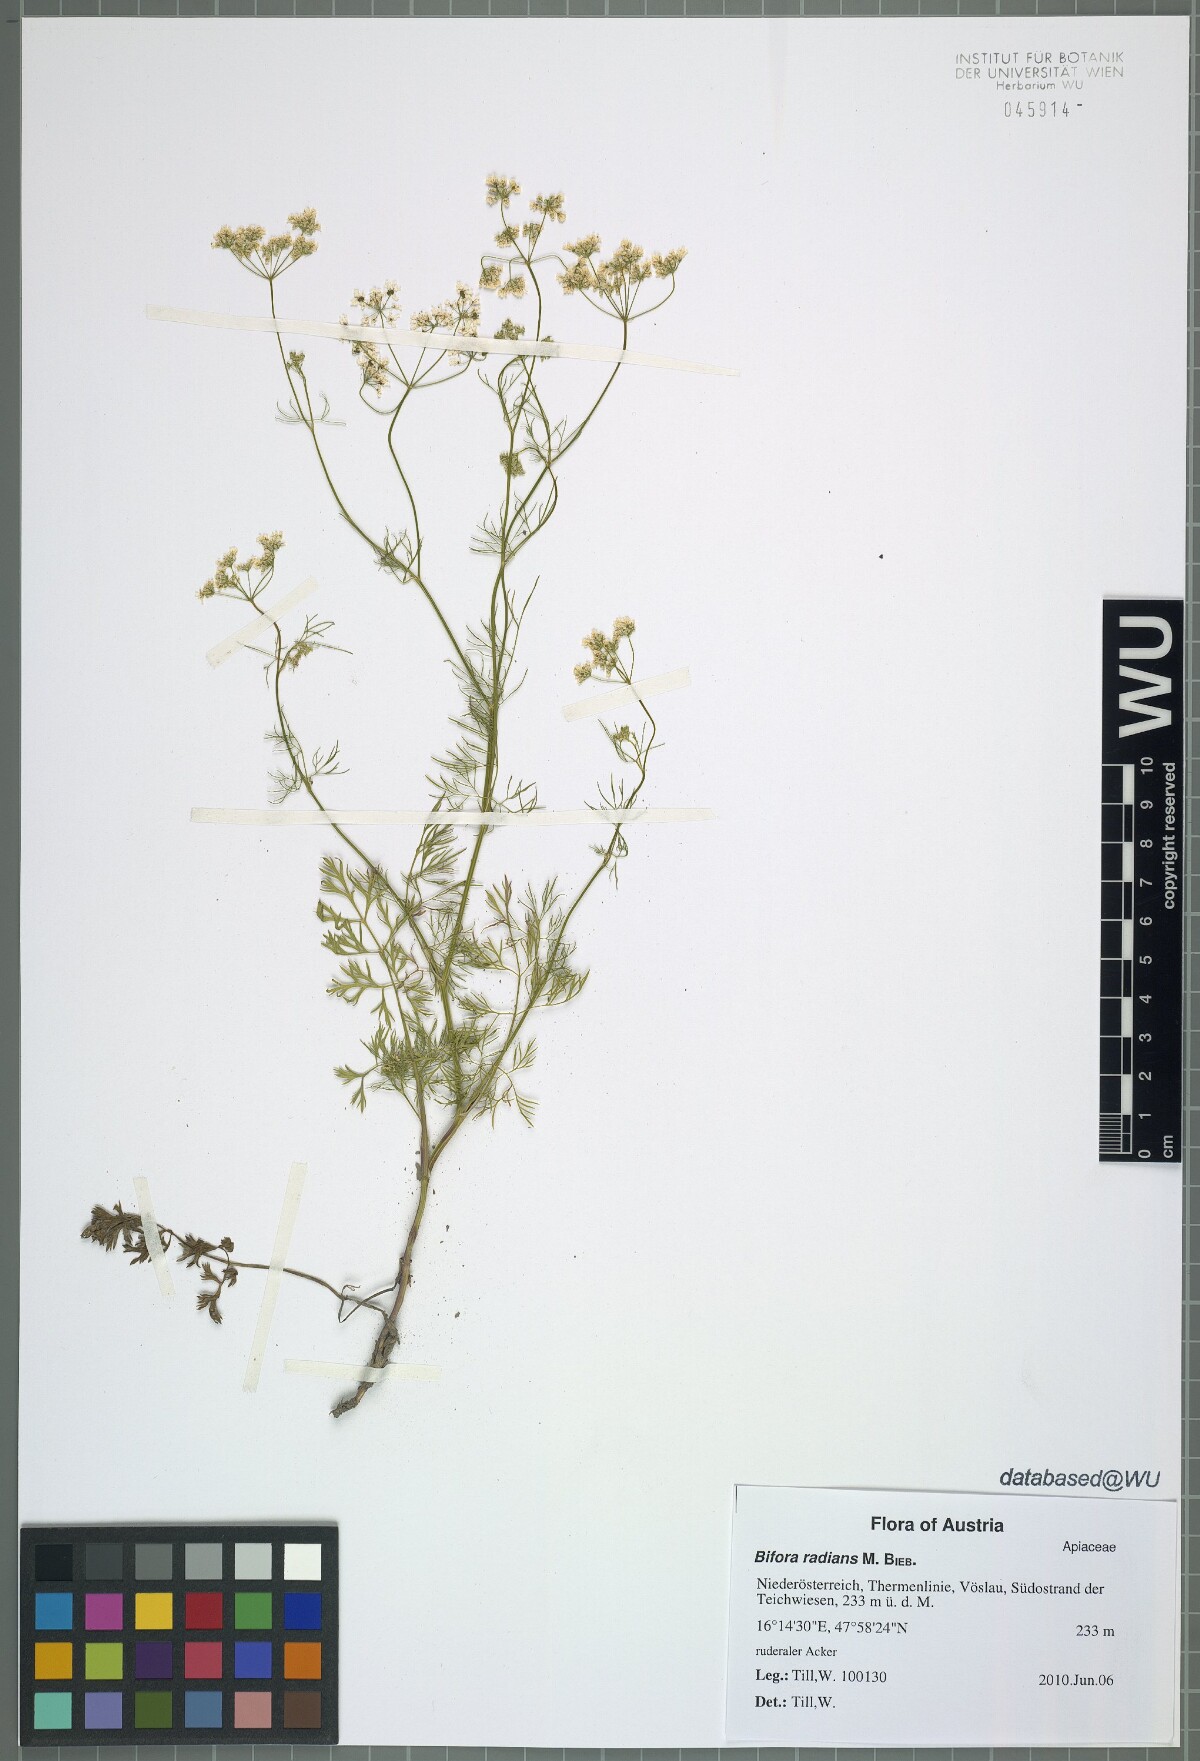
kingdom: Plantae
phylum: Tracheophyta
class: Magnoliopsida
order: Apiales
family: Apiaceae
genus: Bifora
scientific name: Bifora radians
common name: Wild bishop
